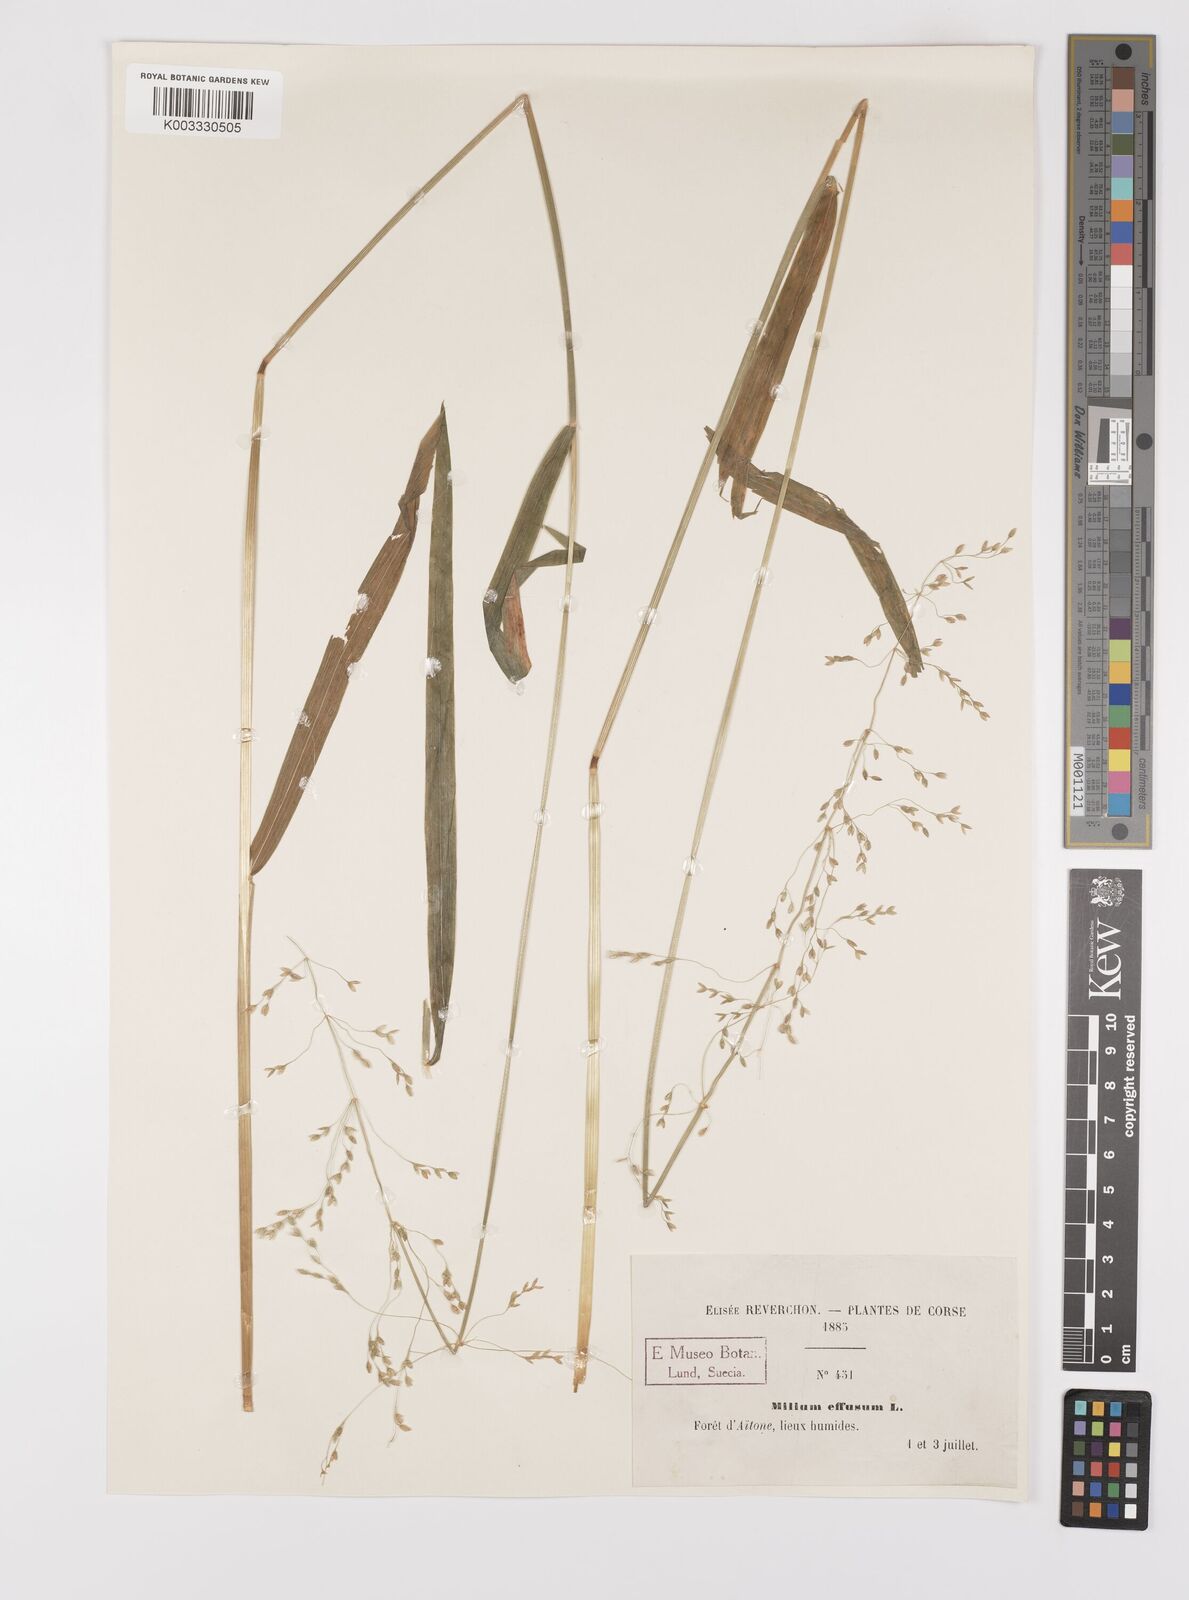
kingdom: Plantae
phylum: Tracheophyta
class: Liliopsida
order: Poales
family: Poaceae
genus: Milium
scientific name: Milium
